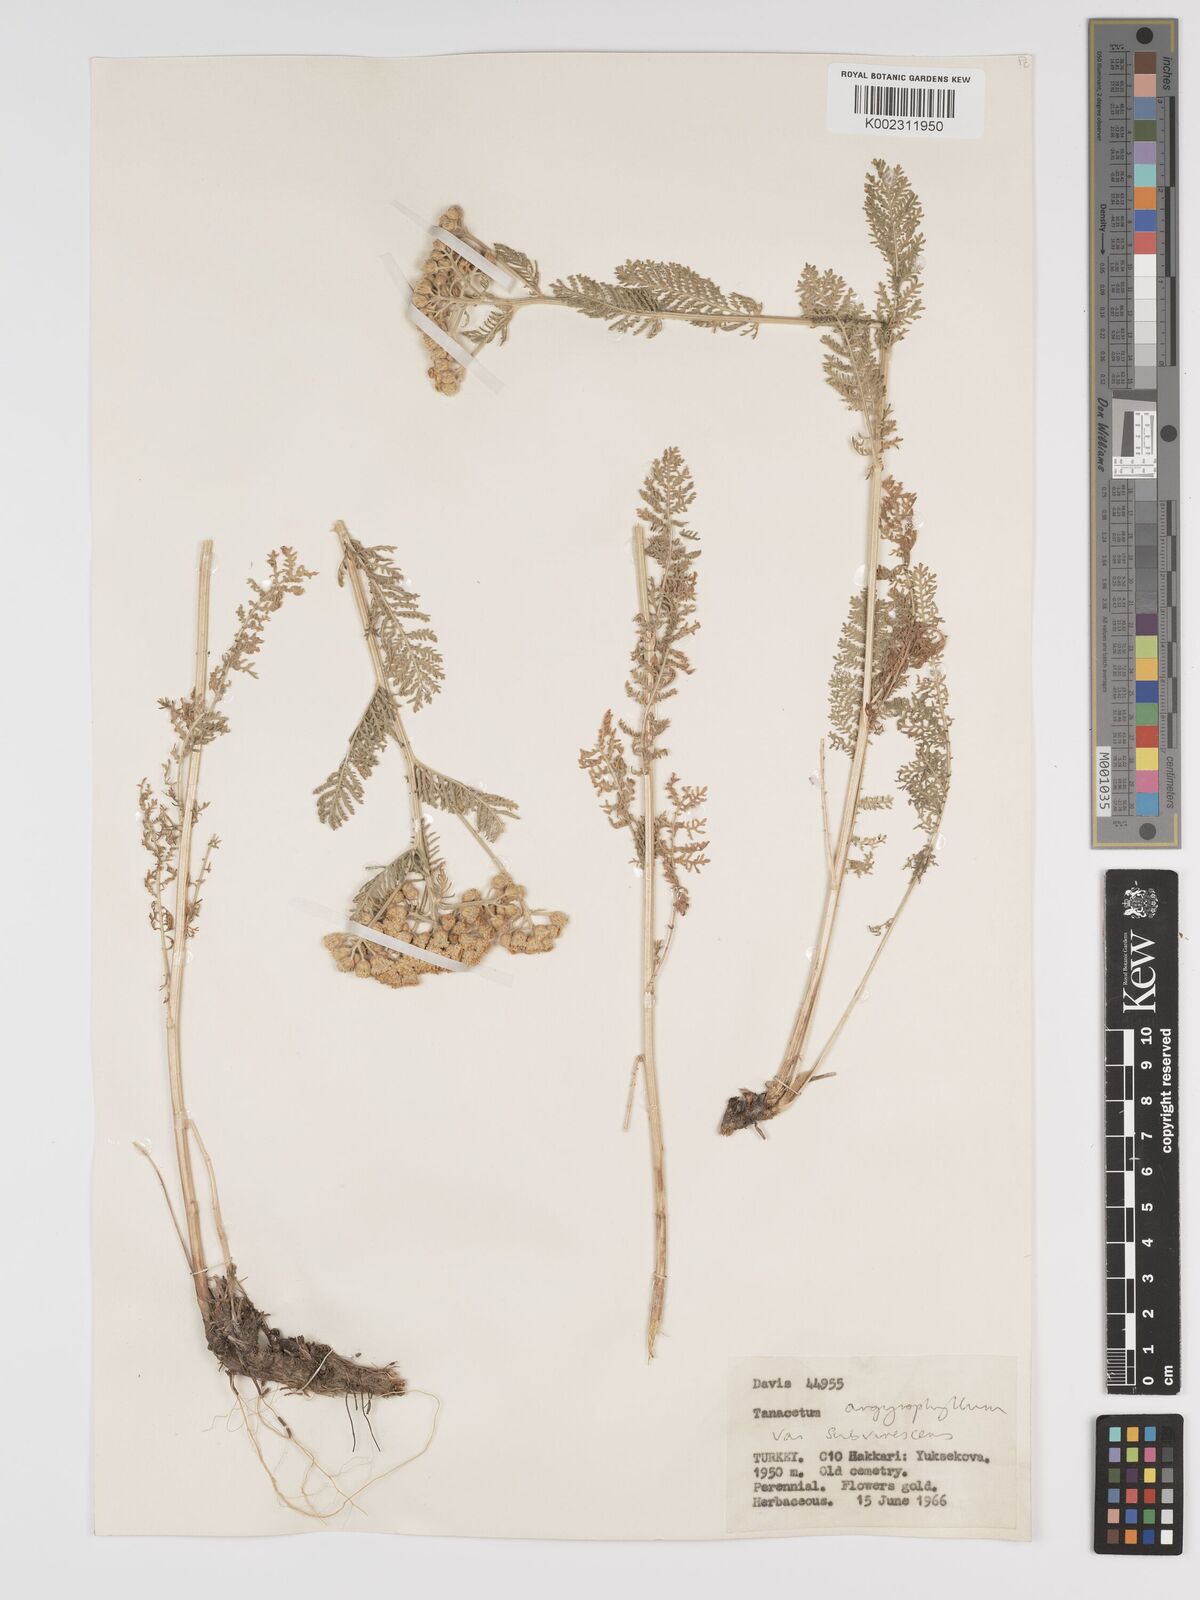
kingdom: Plantae
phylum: Tracheophyta
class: Magnoliopsida
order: Asterales
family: Asteraceae
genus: Tanacetum
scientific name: Tanacetum polycephalum
